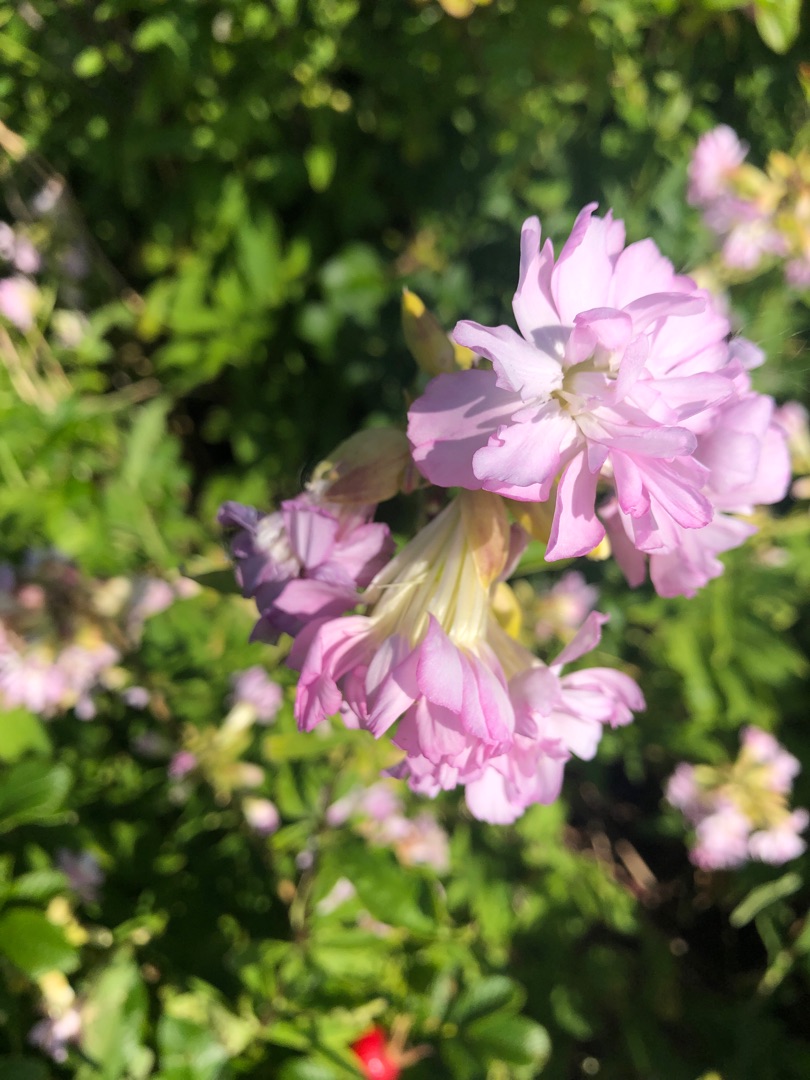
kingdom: Plantae
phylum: Tracheophyta
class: Magnoliopsida
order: Caryophyllales
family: Caryophyllaceae
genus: Saponaria
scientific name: Saponaria officinalis
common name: Sæbeurt
